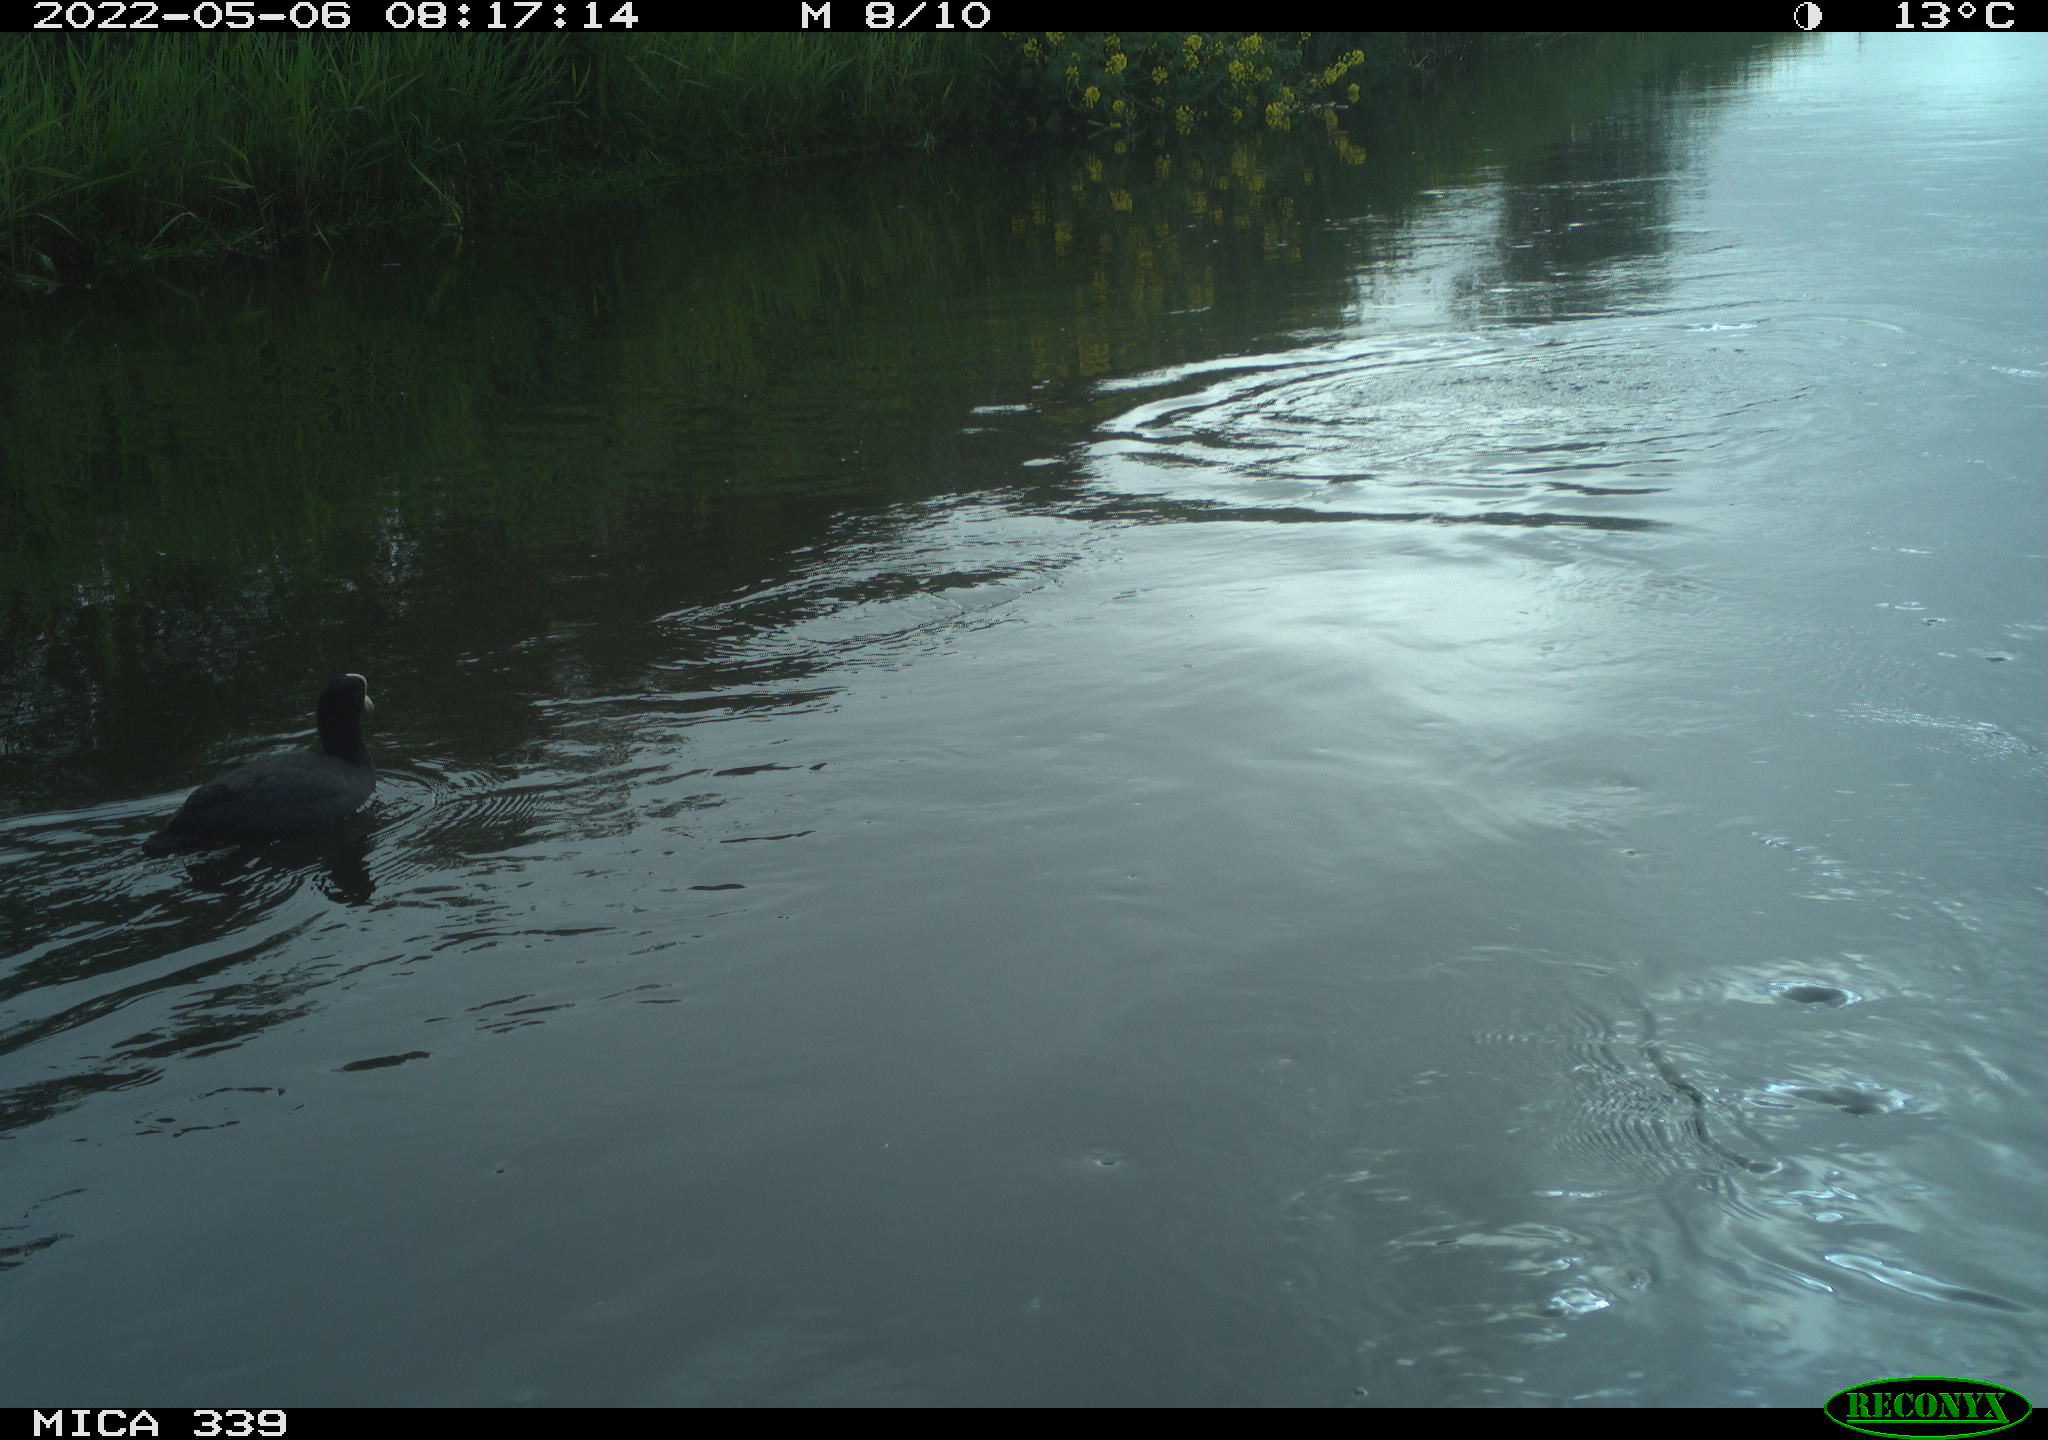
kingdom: Animalia
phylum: Chordata
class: Aves
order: Gruiformes
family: Rallidae
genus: Fulica
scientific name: Fulica atra
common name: Eurasian coot
